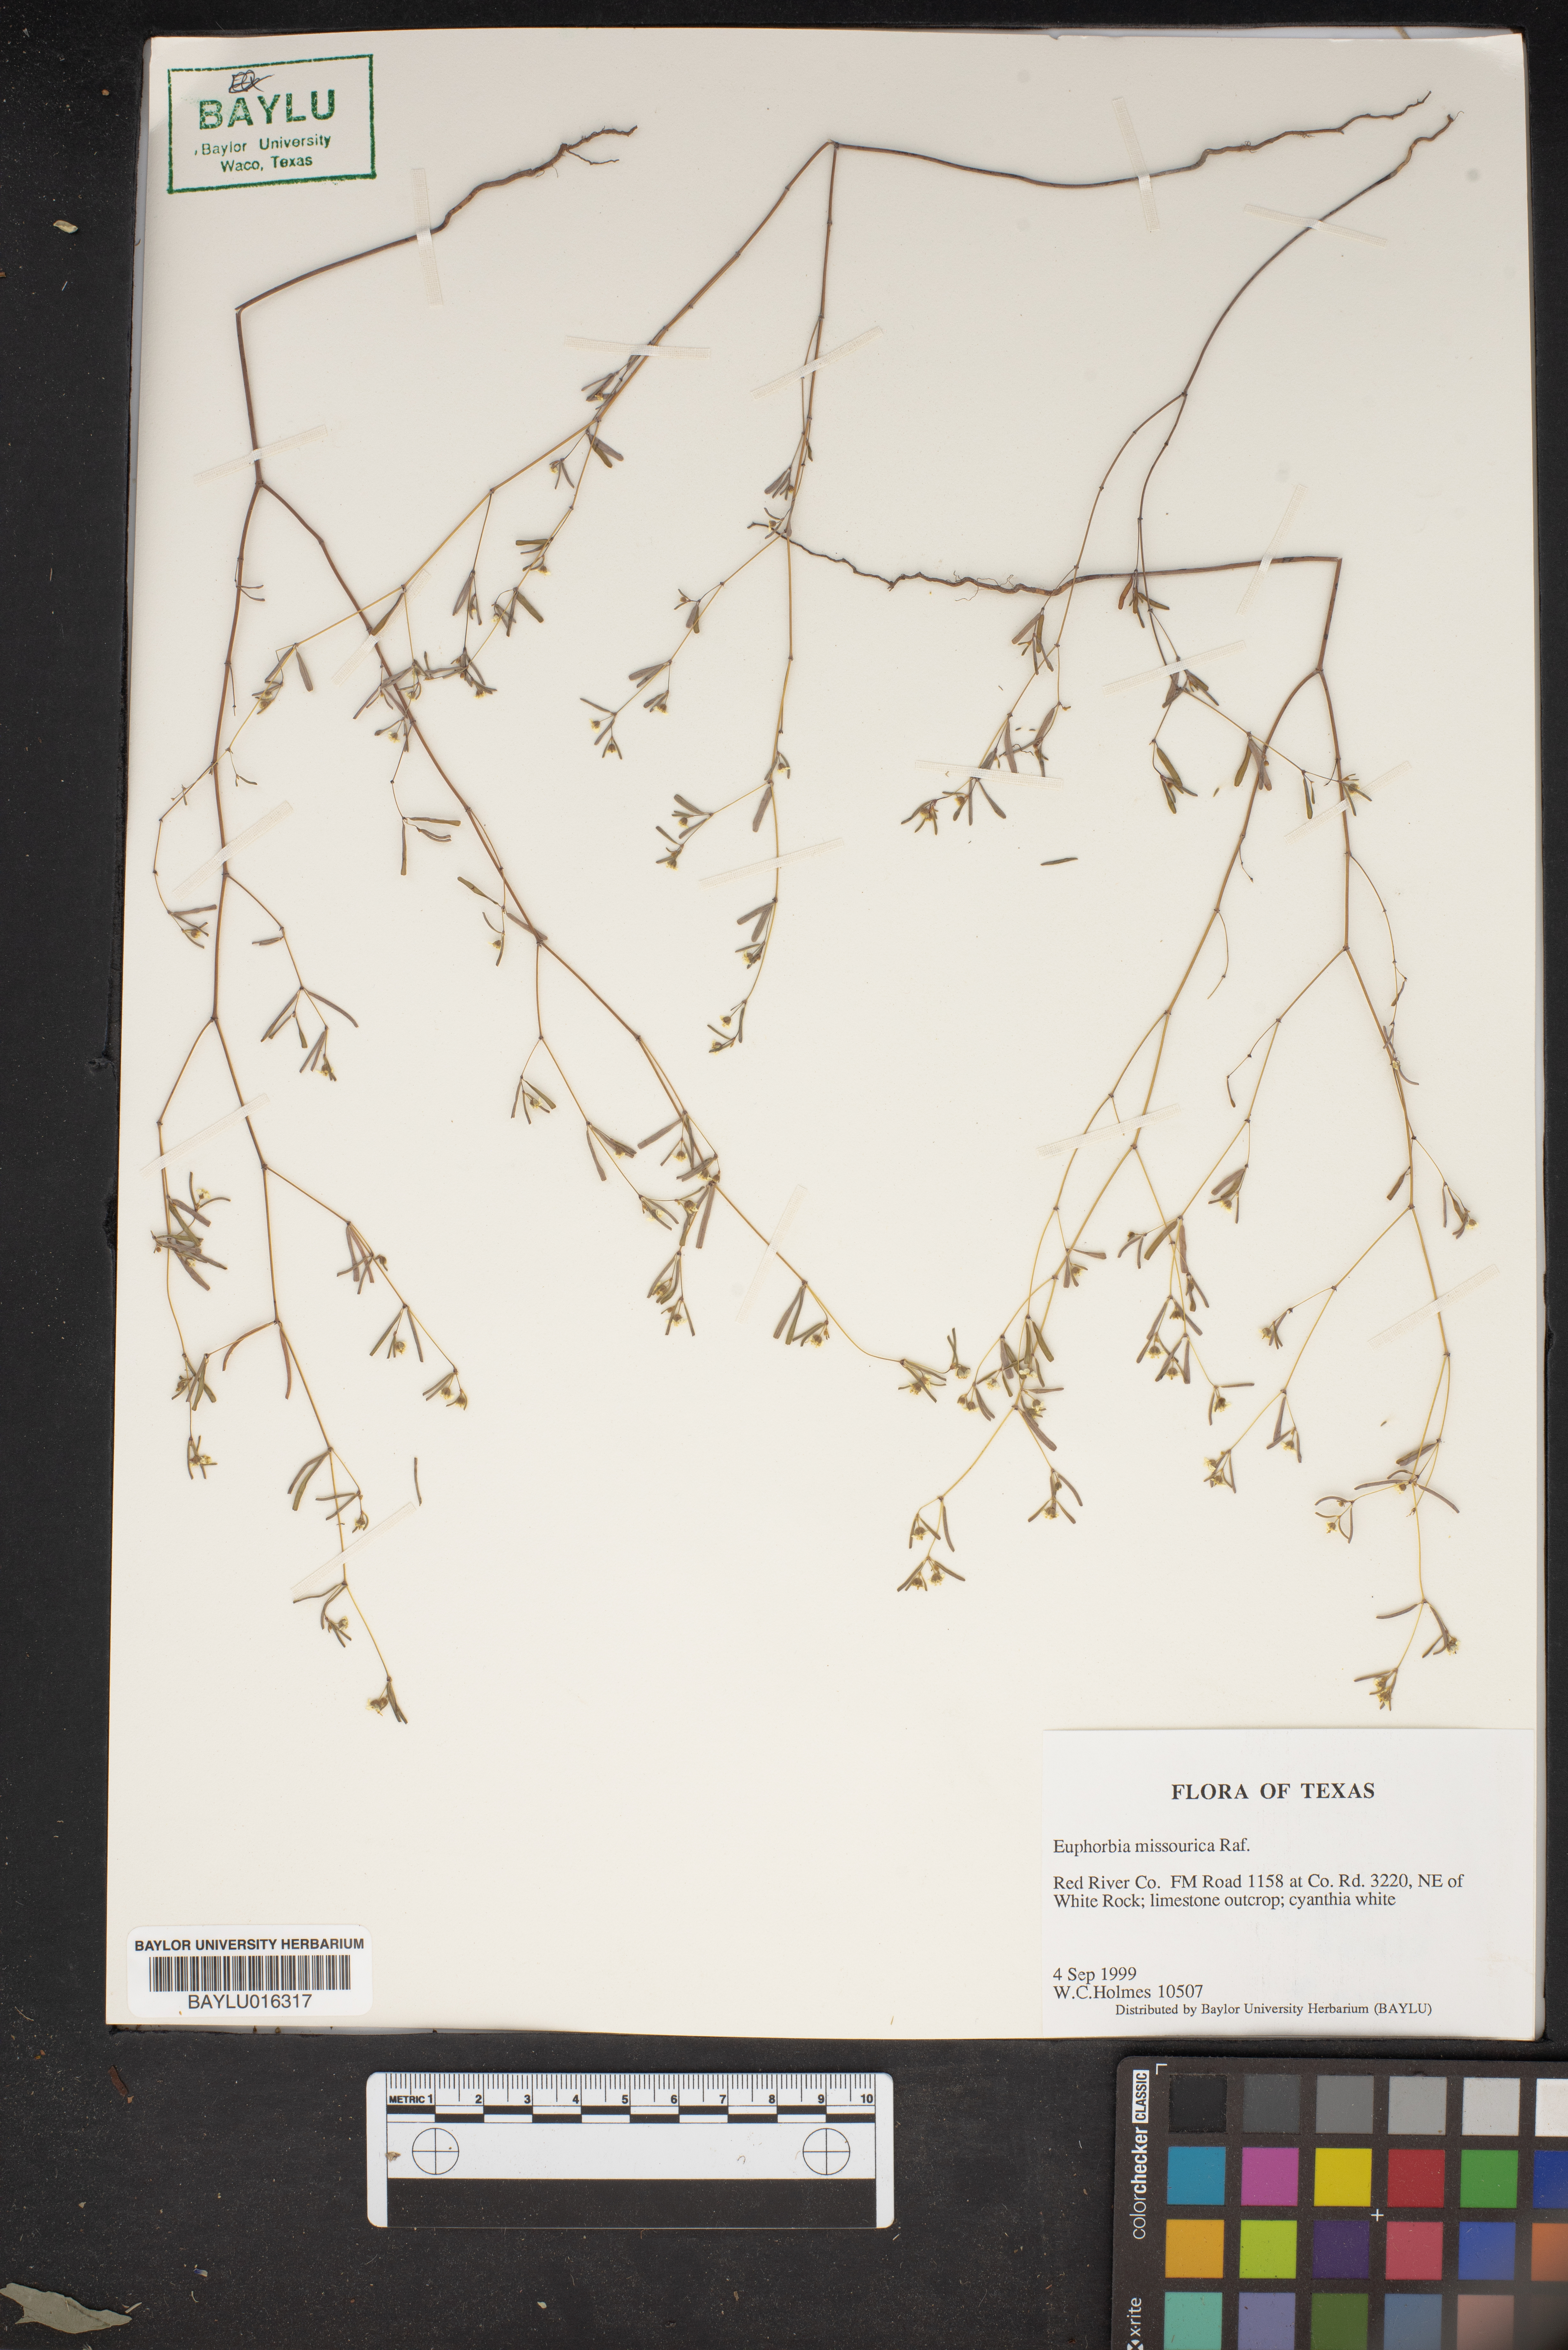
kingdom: Plantae
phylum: Tracheophyta
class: Magnoliopsida
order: Malpighiales
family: Euphorbiaceae
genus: Euphorbia
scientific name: Euphorbia missurica
